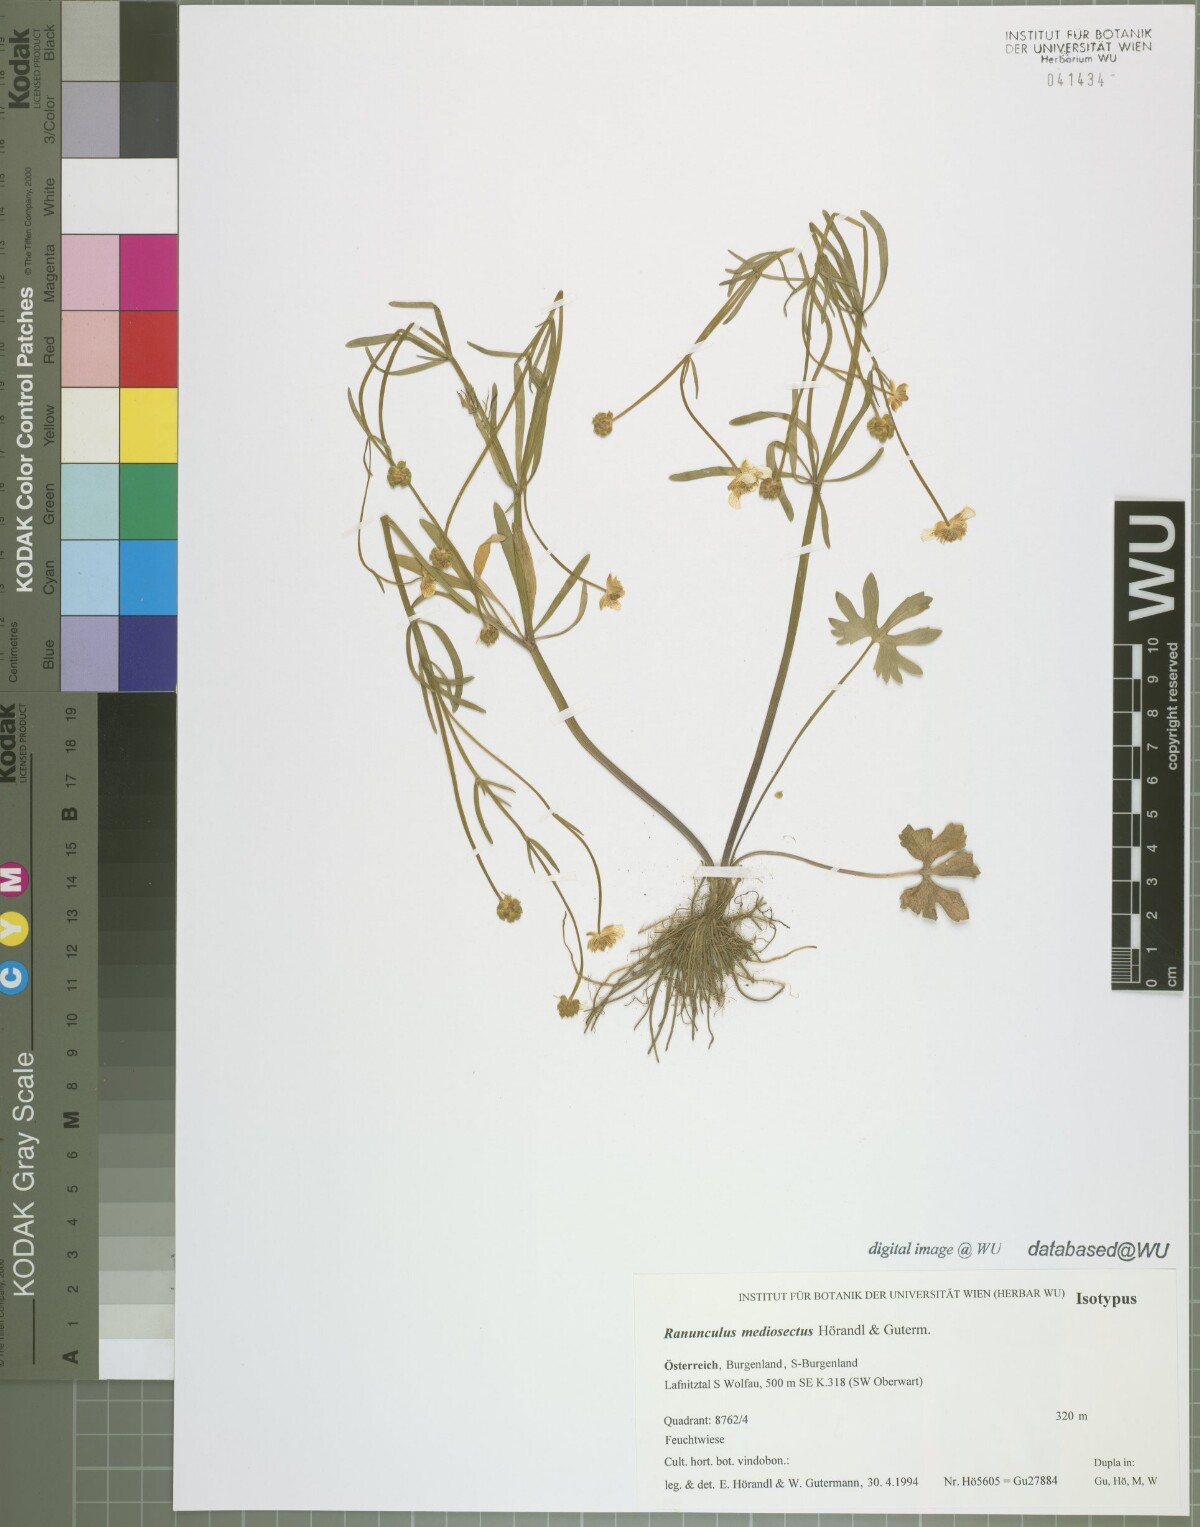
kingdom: Plantae
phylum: Tracheophyta
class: Magnoliopsida
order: Ranunculales
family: Ranunculaceae
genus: Ranunculus
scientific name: Ranunculus mediosectus
